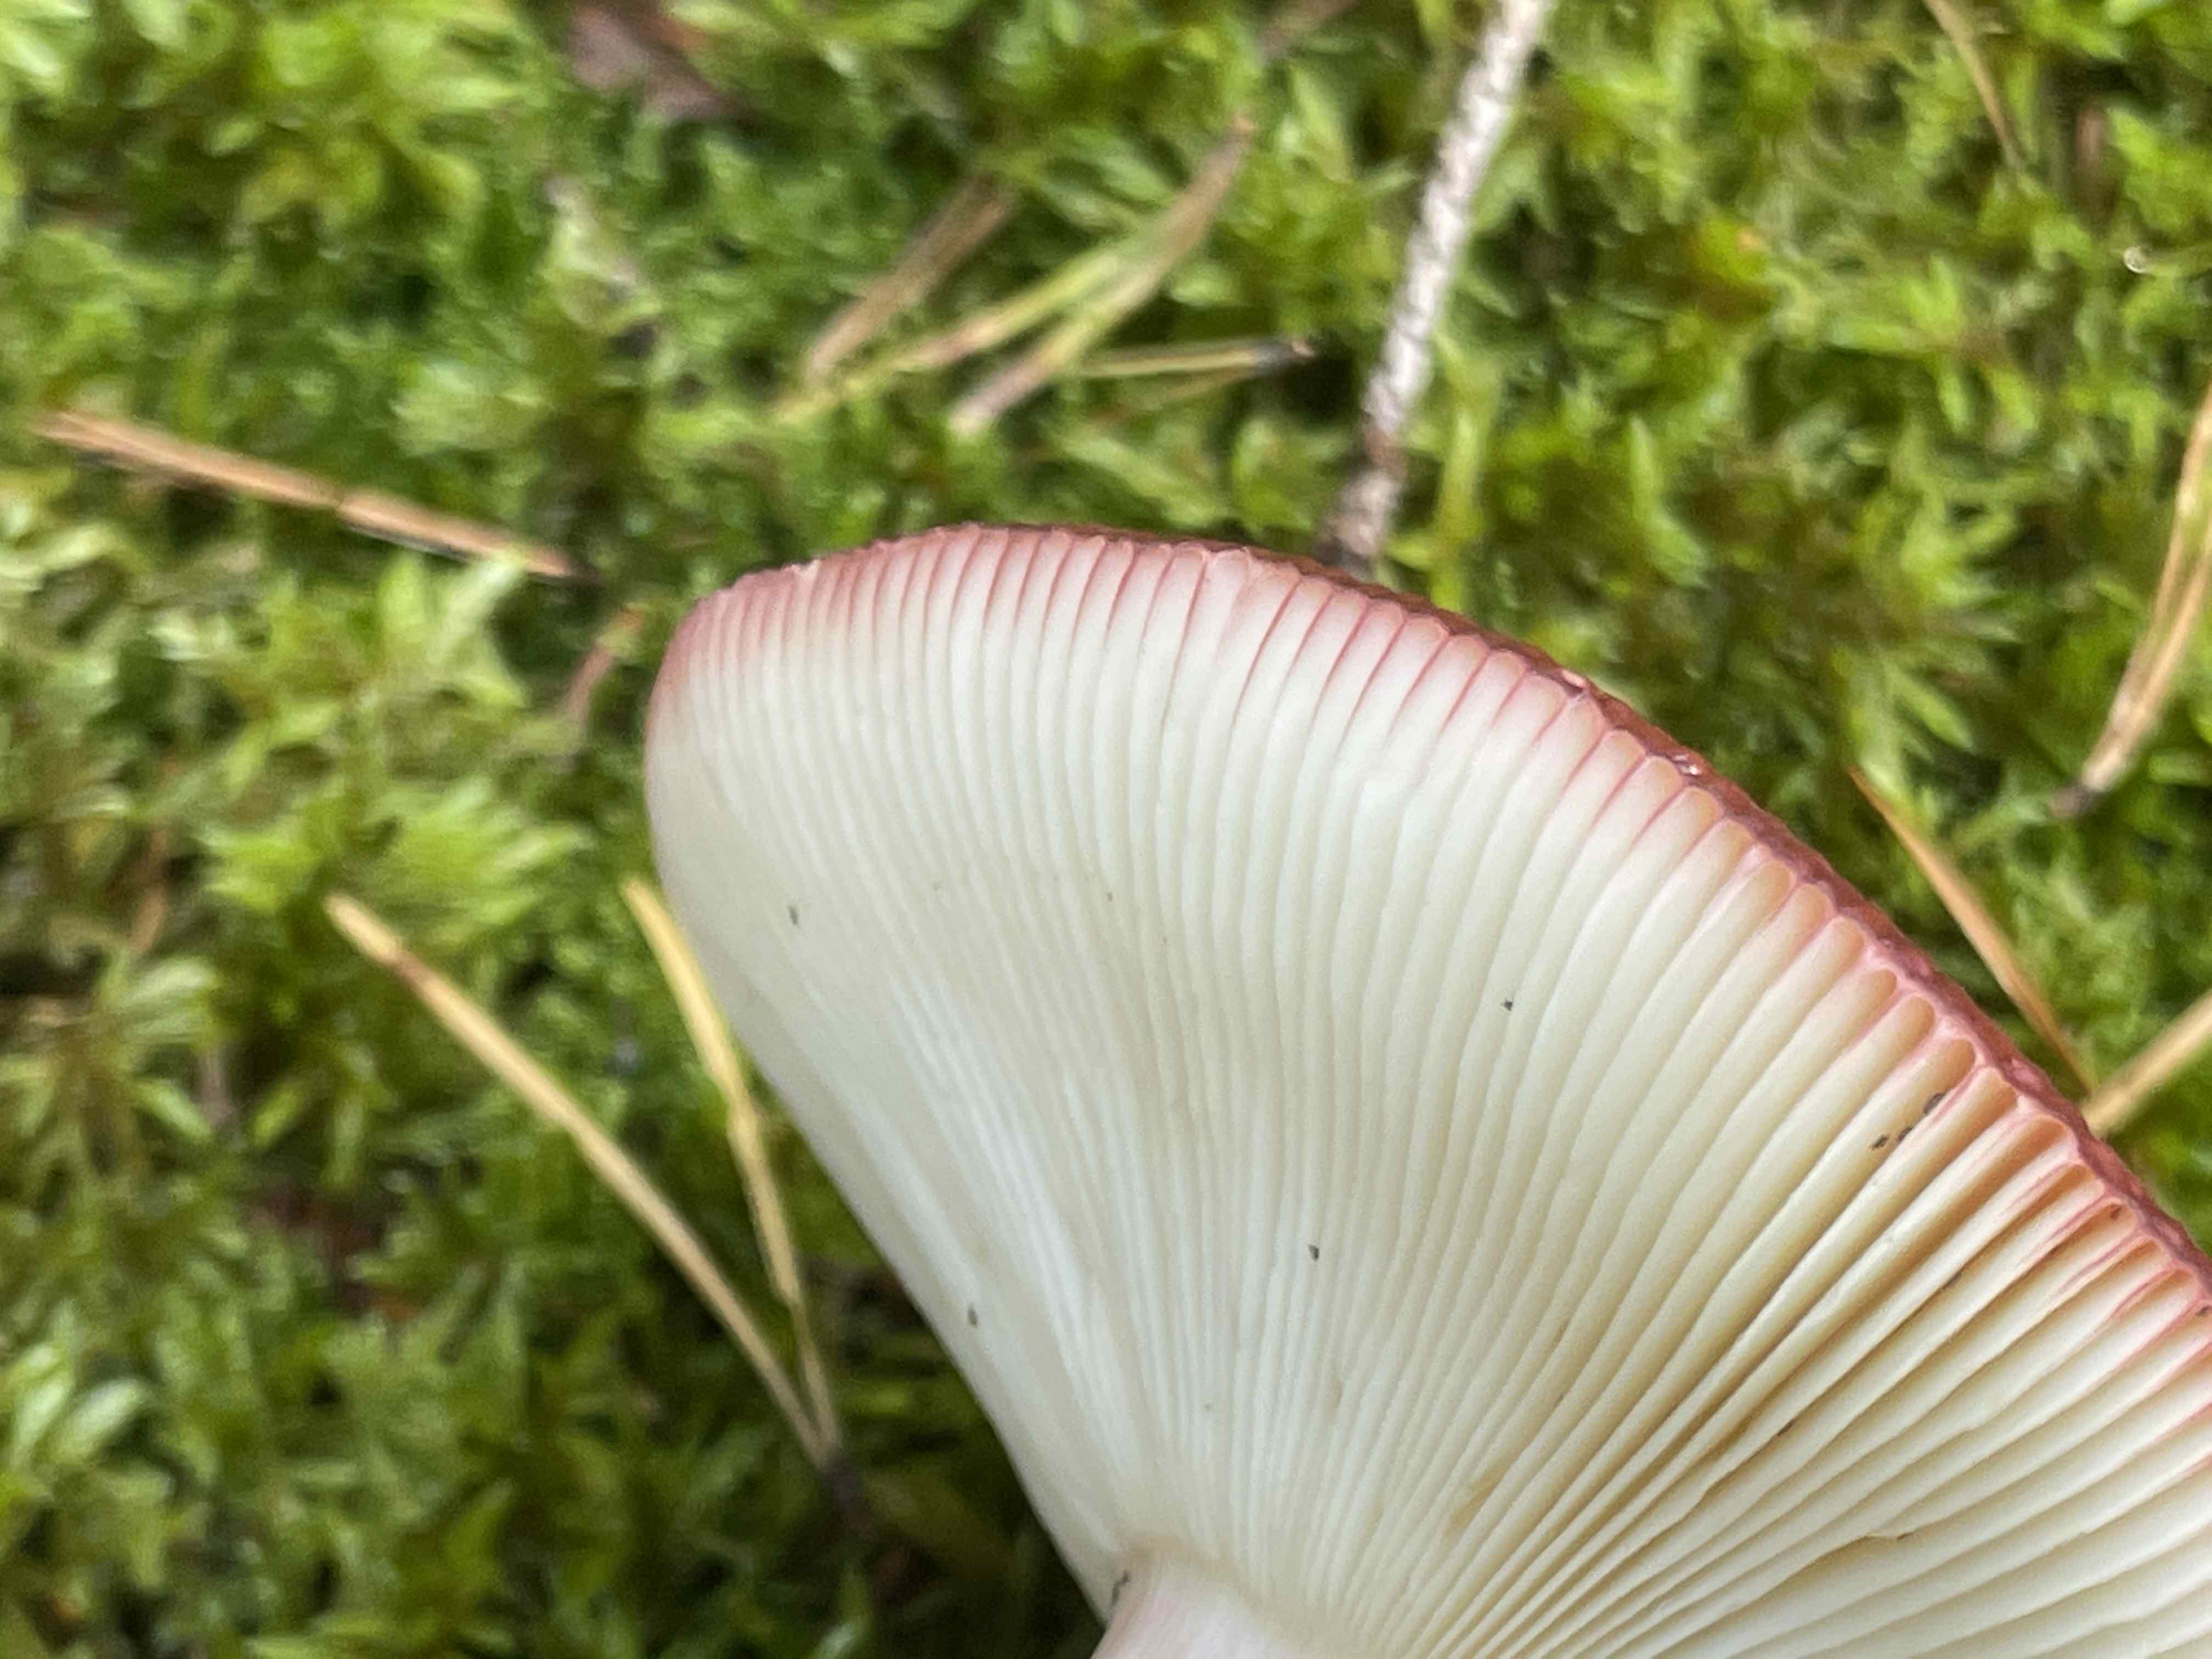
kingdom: Fungi
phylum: Basidiomycota
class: Agaricomycetes
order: Russulales
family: Russulaceae
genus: Russula
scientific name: Russula paludosa
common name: prægtig skørhat
